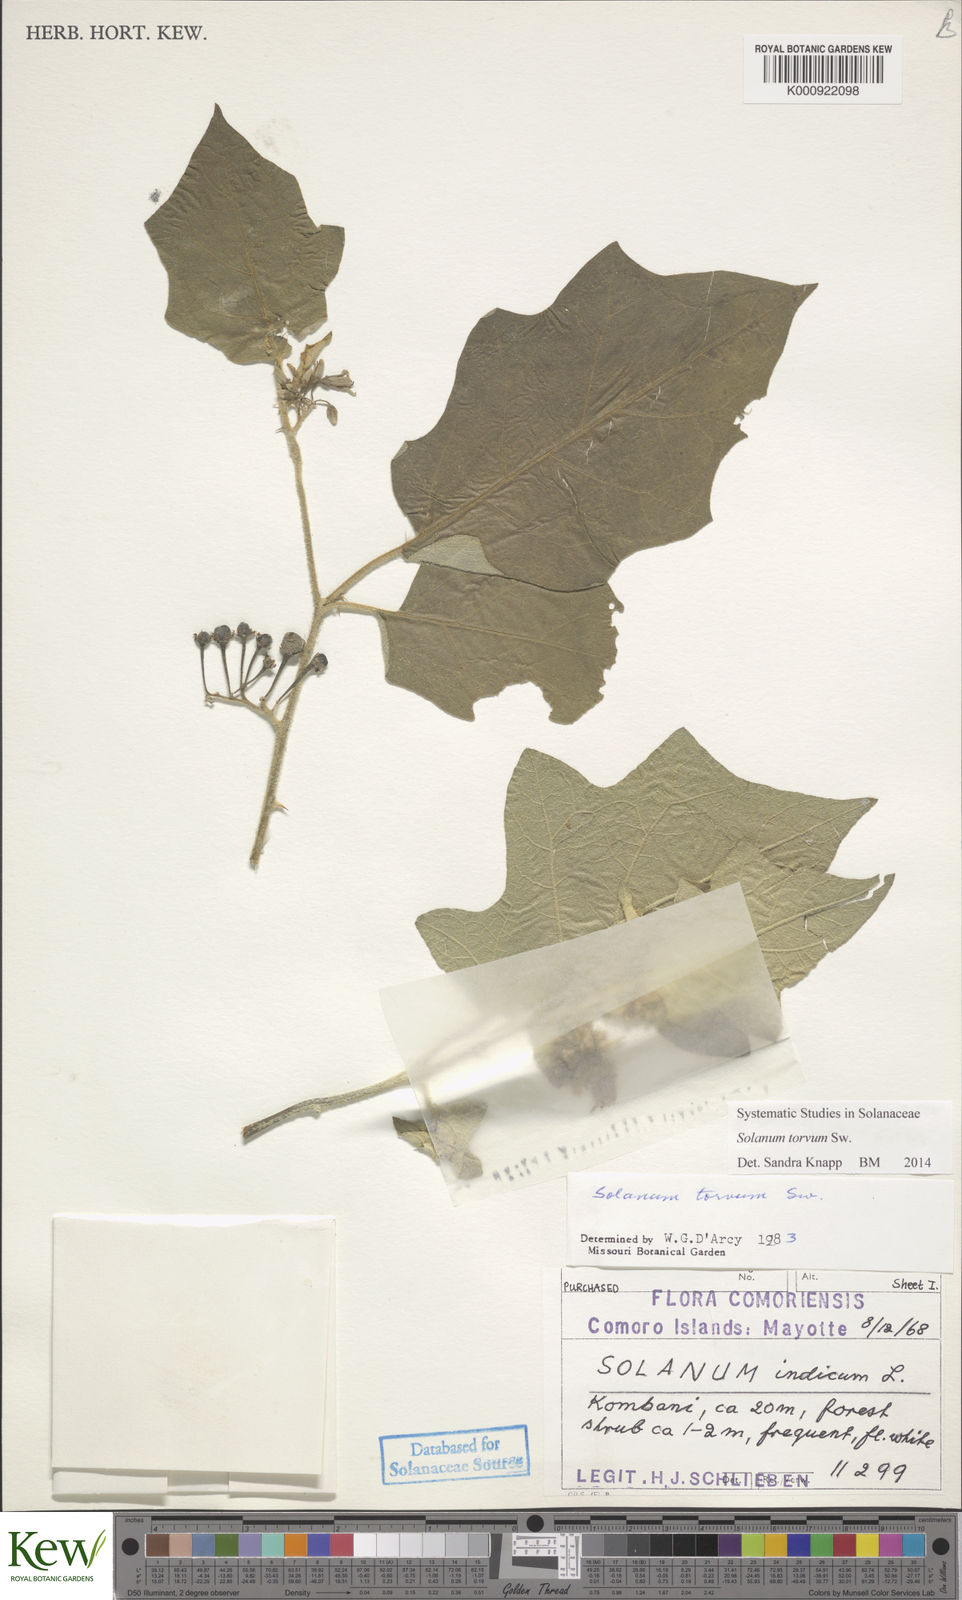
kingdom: Plantae
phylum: Tracheophyta
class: Magnoliopsida
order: Solanales
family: Solanaceae
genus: Solanum
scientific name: Solanum torvum
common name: Turkey berry
